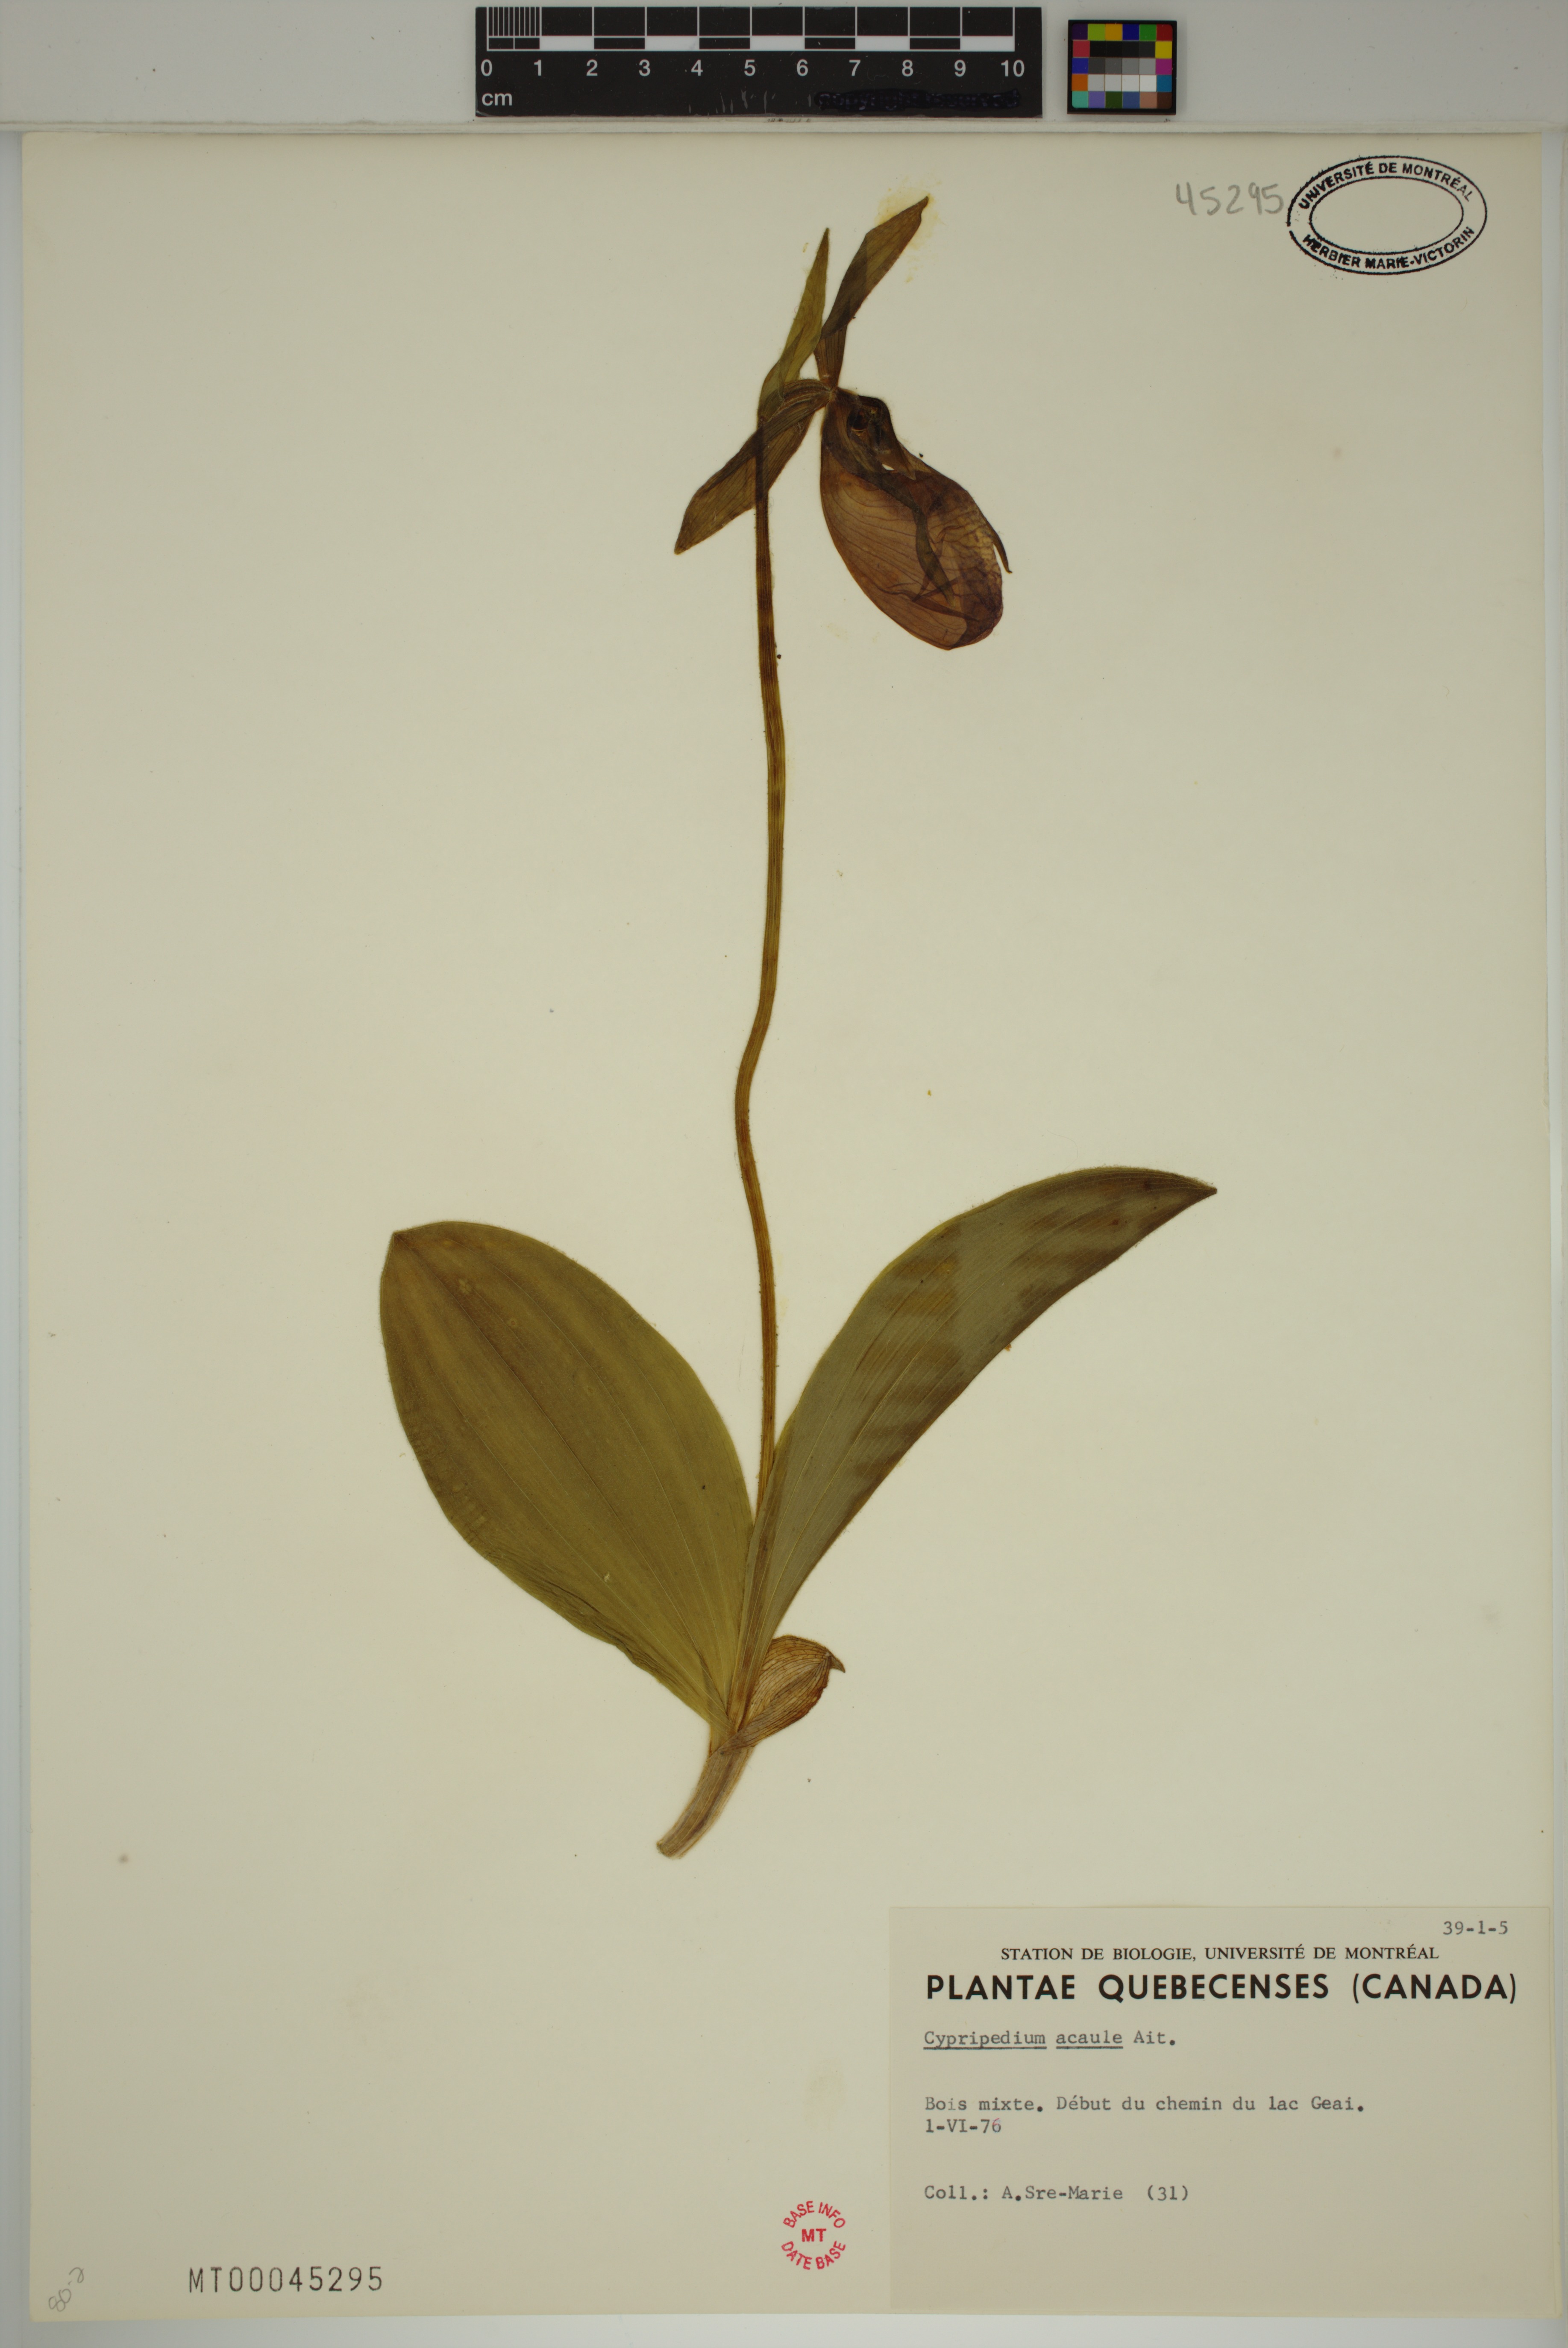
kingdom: Plantae
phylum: Tracheophyta
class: Liliopsida
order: Asparagales
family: Orchidaceae
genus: Cypripedium
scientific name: Cypripedium acaule
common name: Pink lady's-slipper
